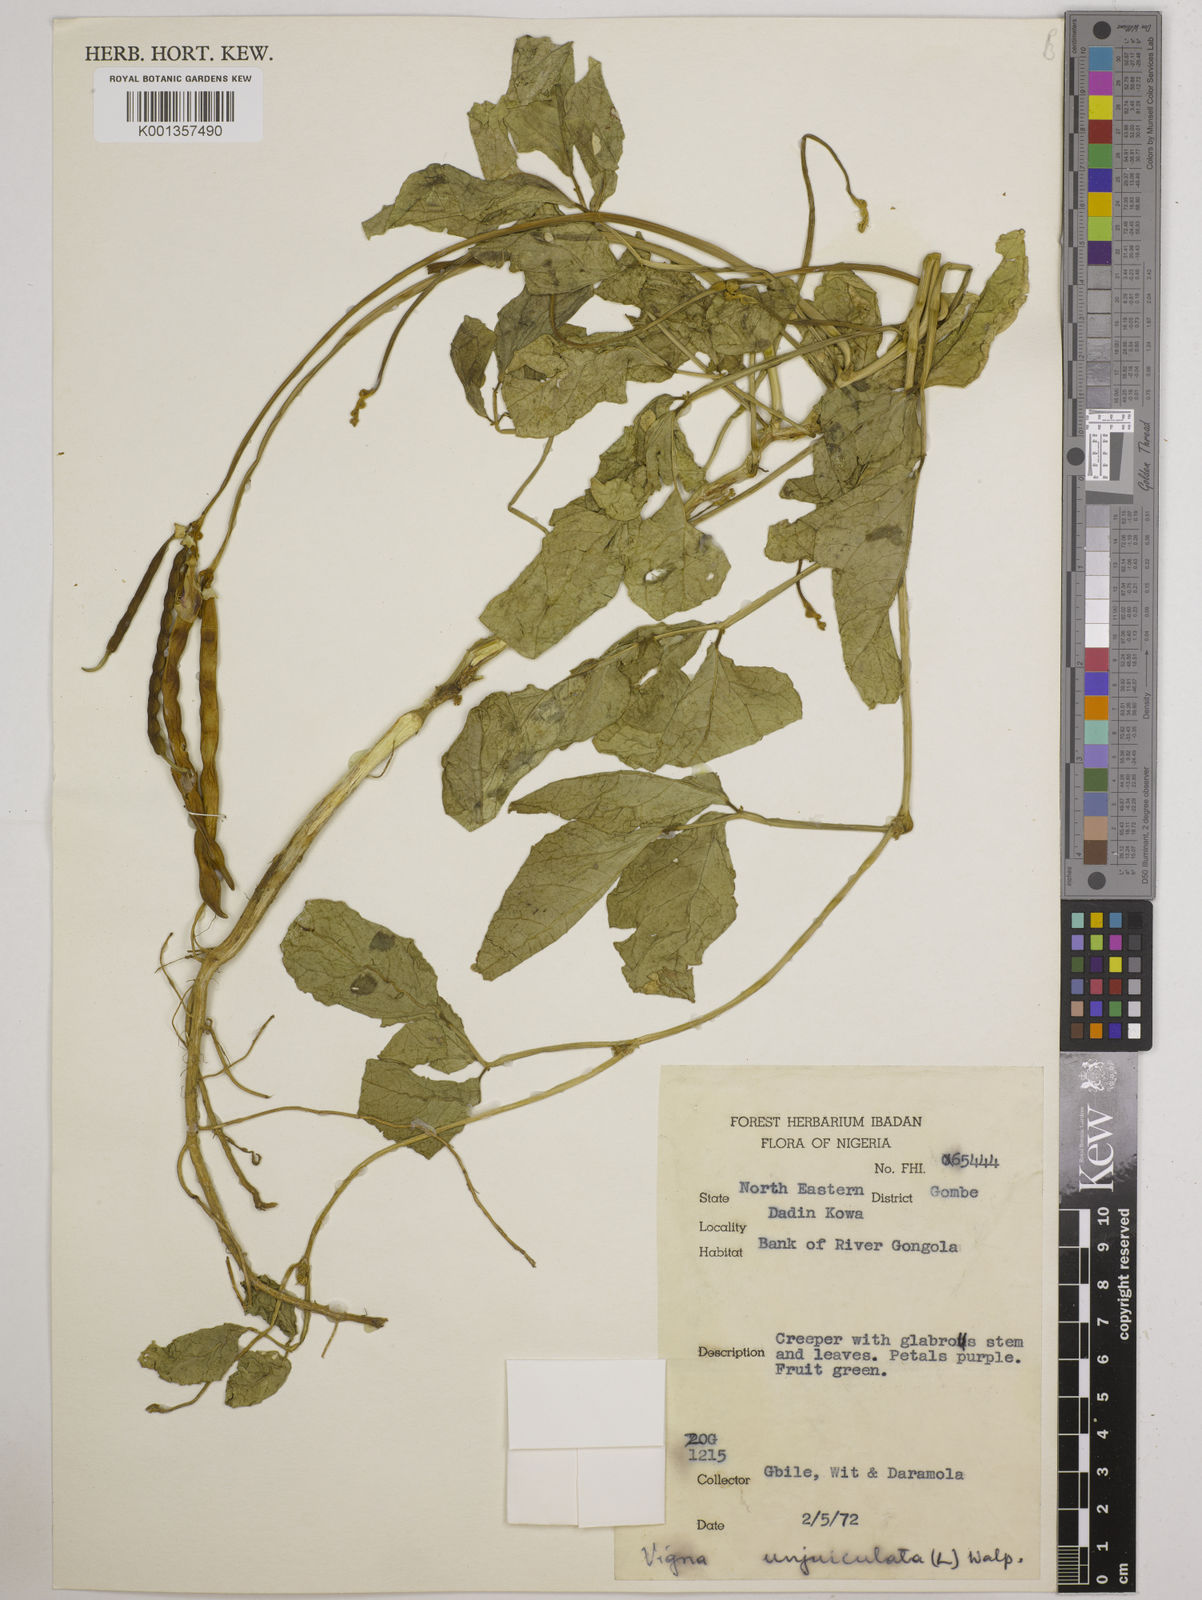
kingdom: Plantae
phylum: Tracheophyta
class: Magnoliopsida
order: Fabales
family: Fabaceae
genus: Vigna
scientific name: Vigna unguiculata
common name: Cowpea
